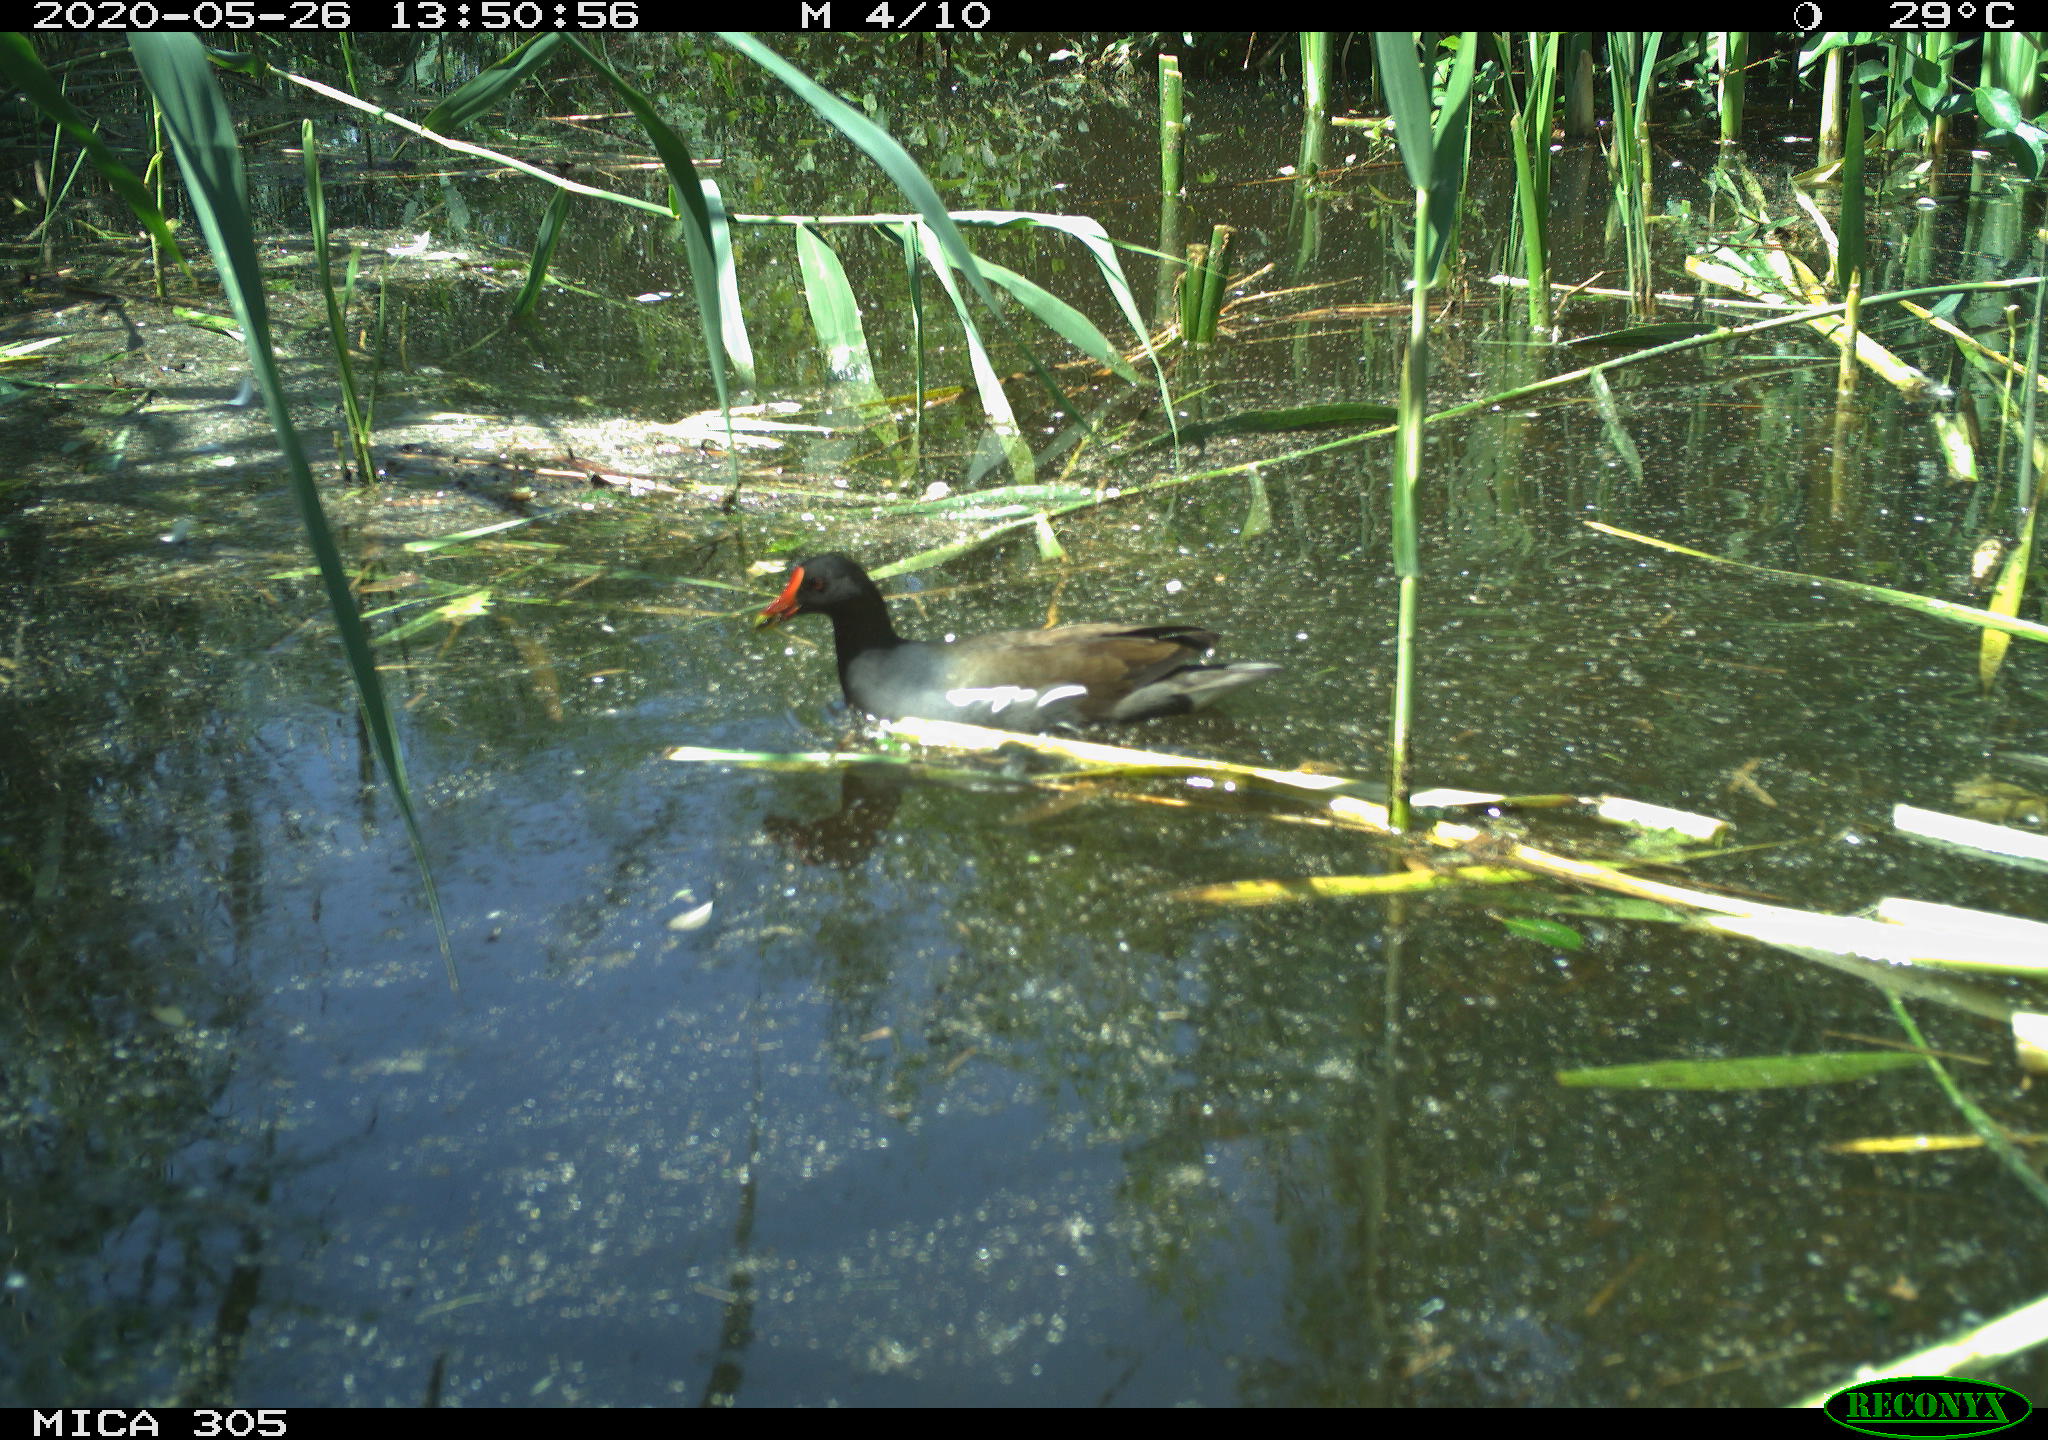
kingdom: Animalia
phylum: Chordata
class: Aves
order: Gruiformes
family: Rallidae
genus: Gallinula
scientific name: Gallinula chloropus
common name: Common moorhen
